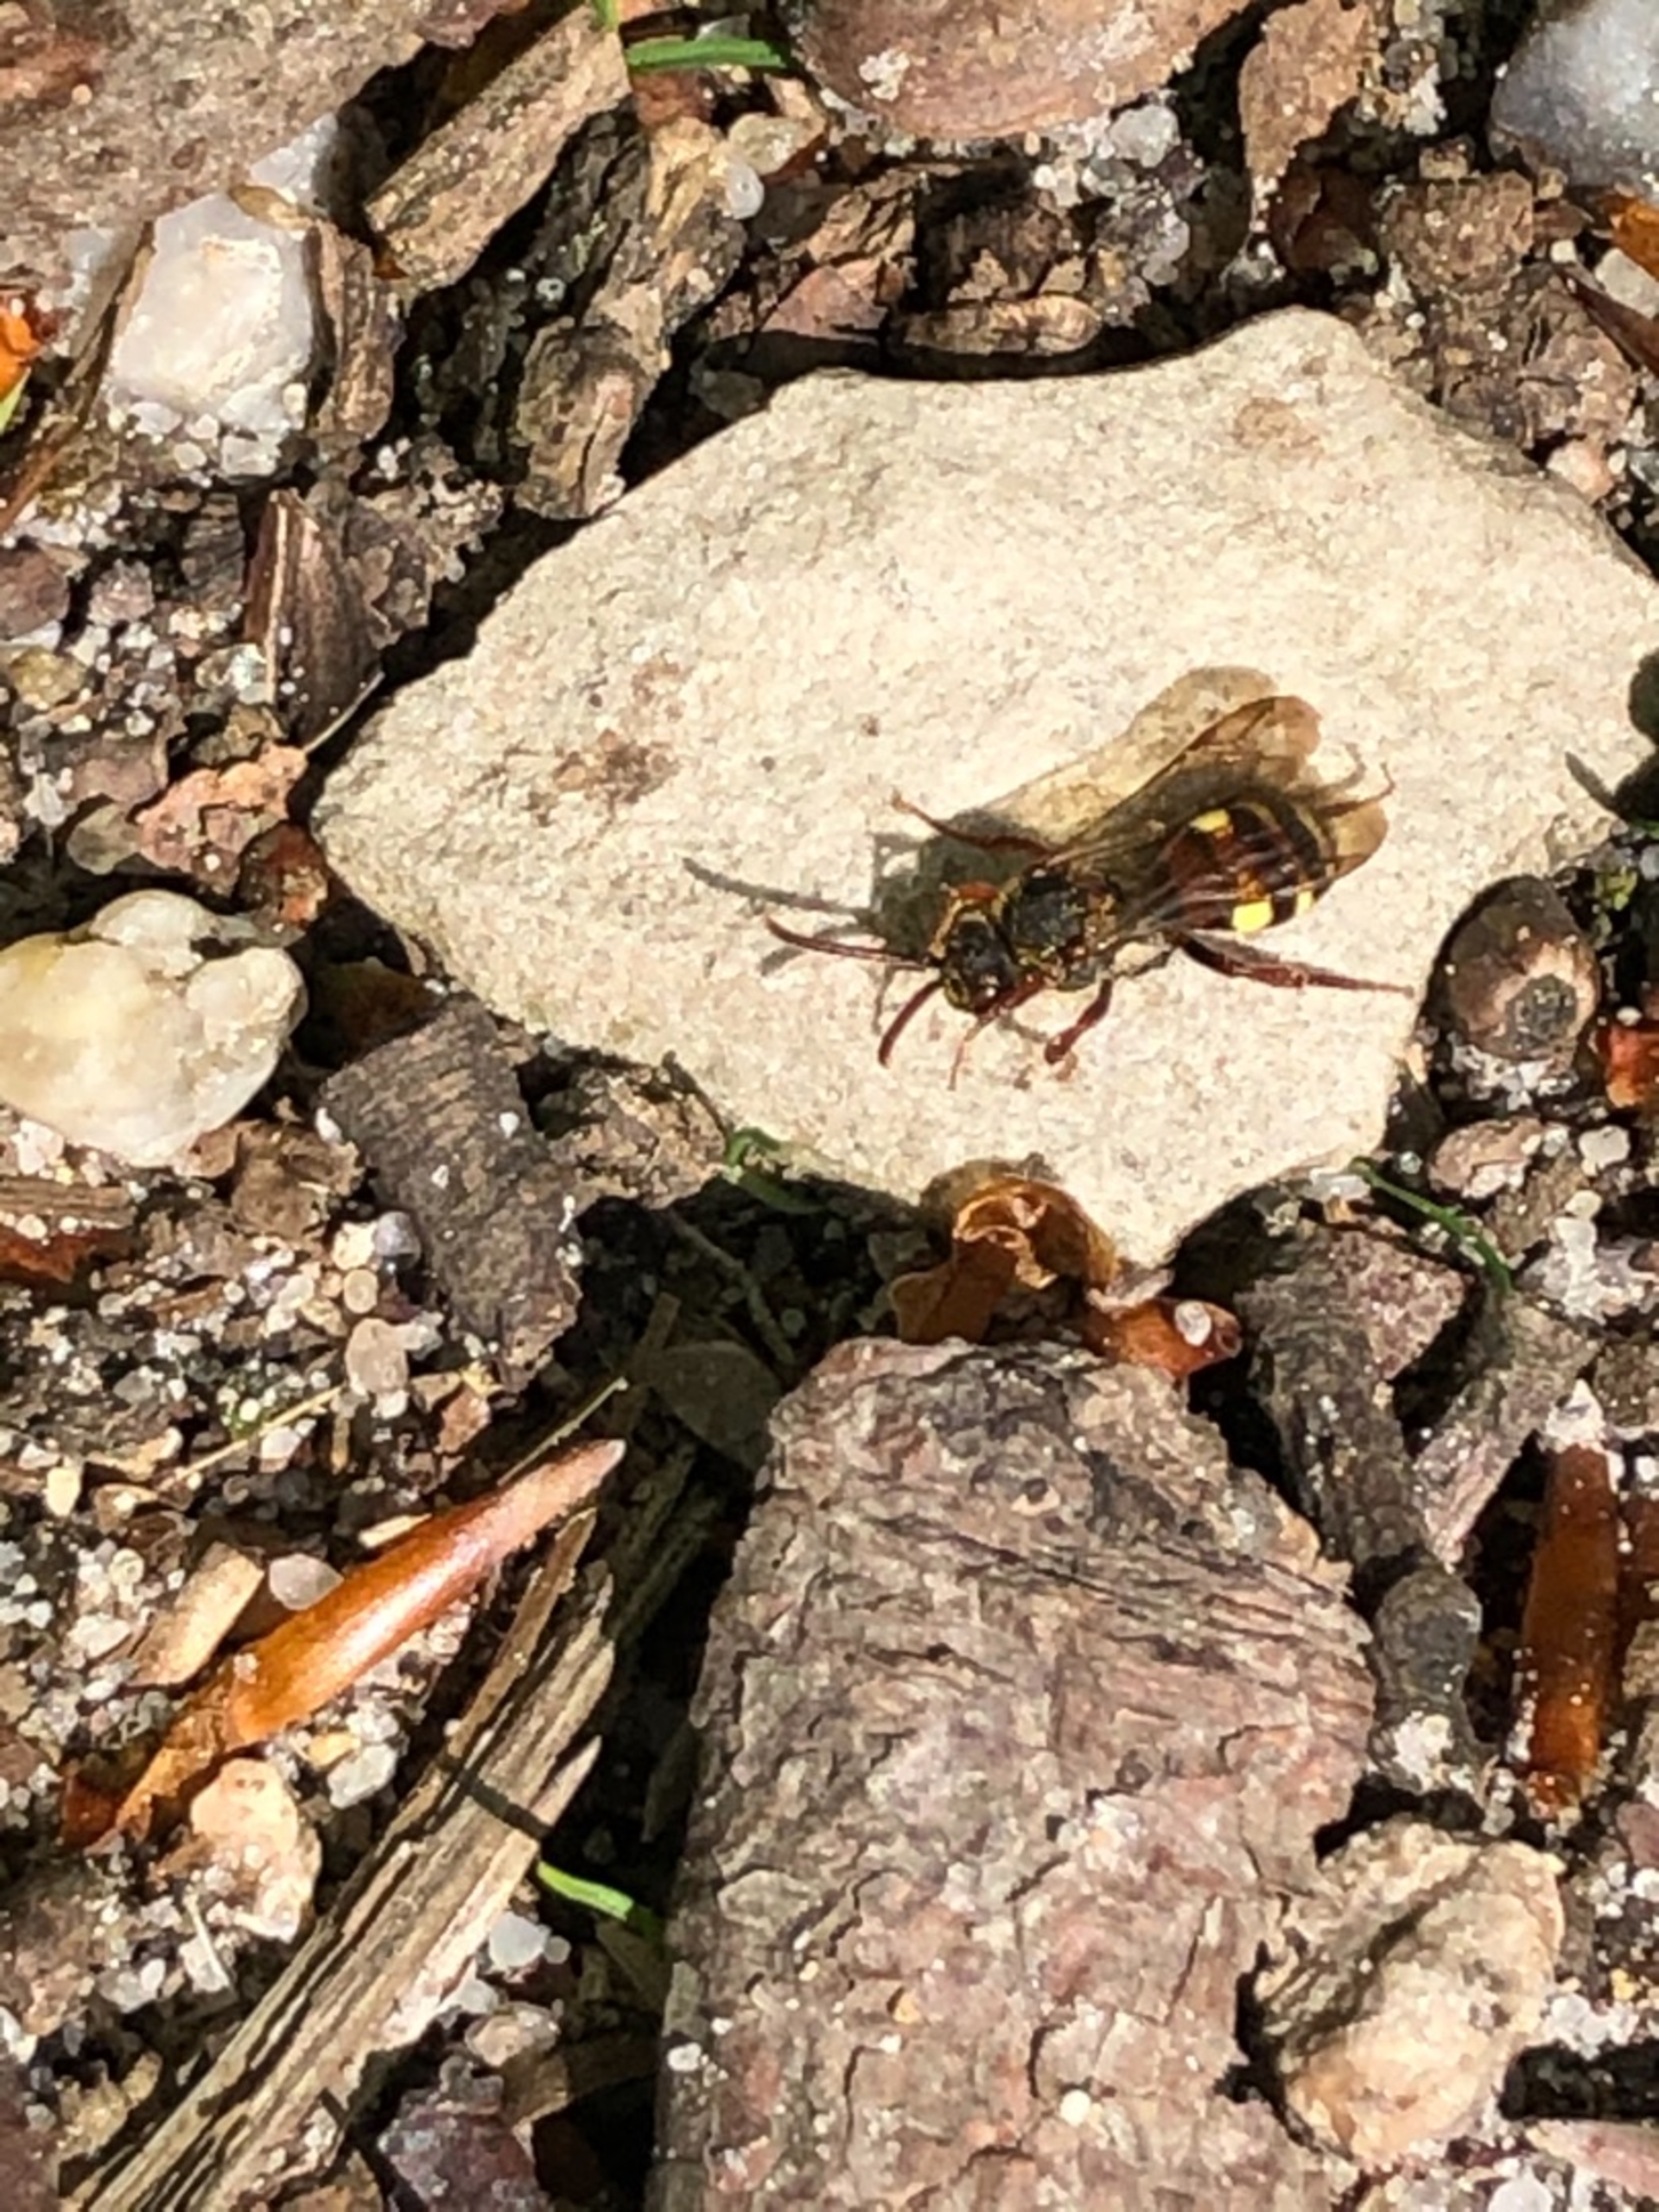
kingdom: Animalia
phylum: Arthropoda
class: Insecta
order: Hymenoptera
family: Apidae
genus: Nomada
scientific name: Nomada
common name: Hvepsebier
